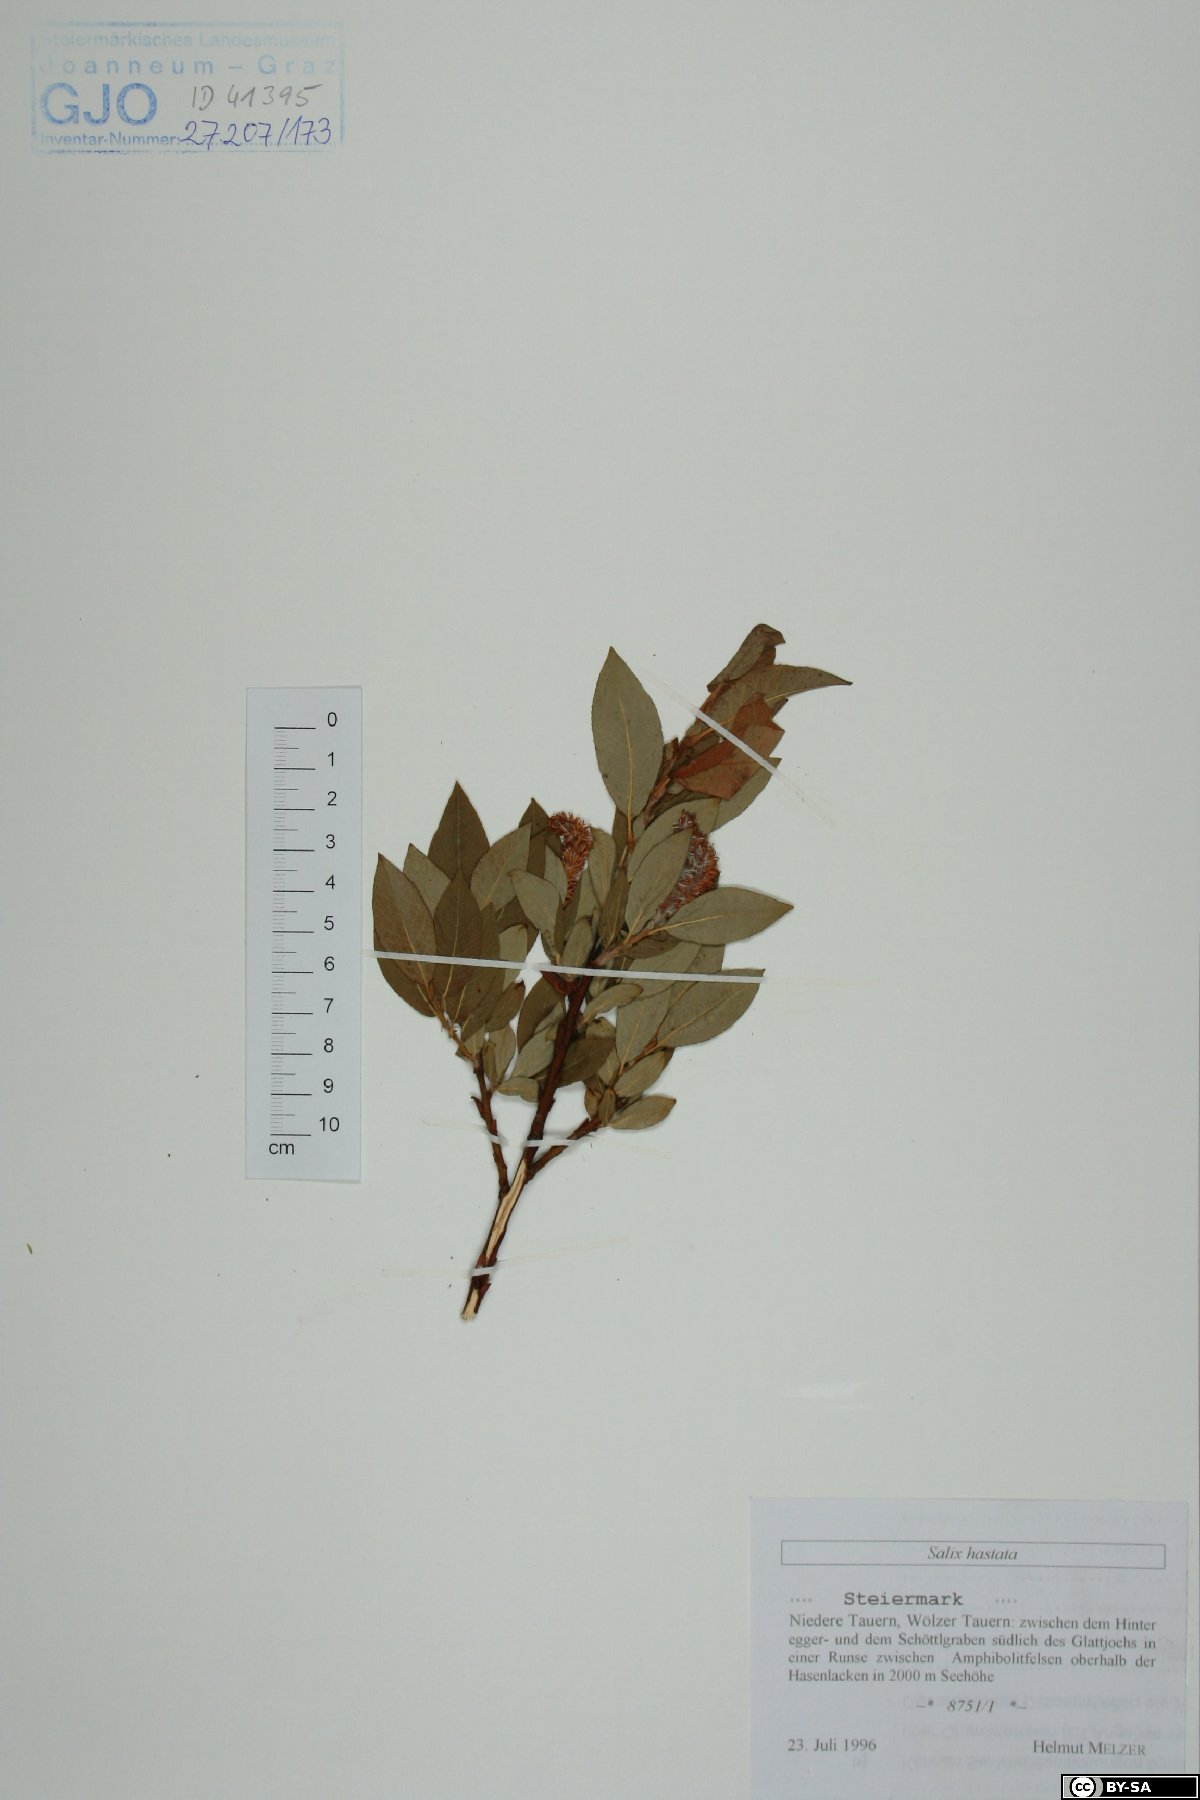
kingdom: Plantae
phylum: Tracheophyta
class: Magnoliopsida
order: Malpighiales
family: Salicaceae
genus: Salix
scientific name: Salix hastata
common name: Halberd willow
